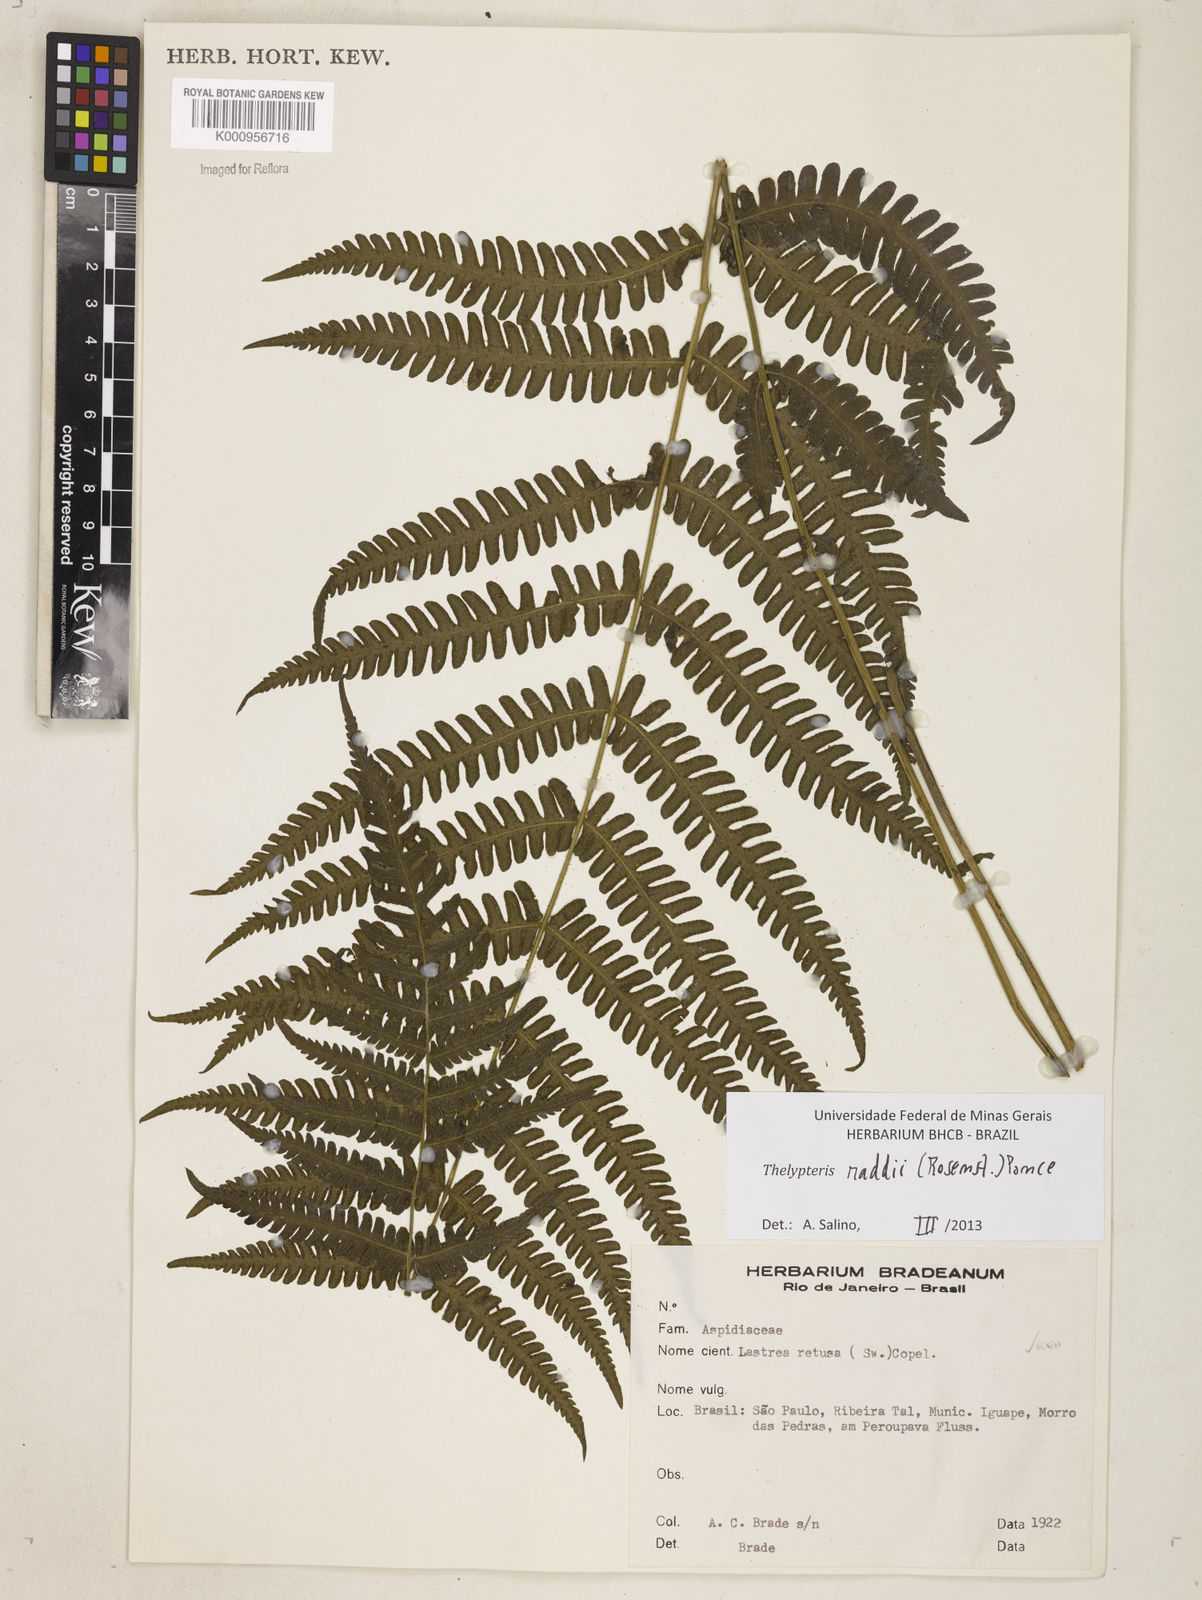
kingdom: Plantae
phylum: Tracheophyta
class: Polypodiopsida
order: Polypodiales
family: Thelypteridaceae
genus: Amauropelta
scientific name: Amauropelta raddii
